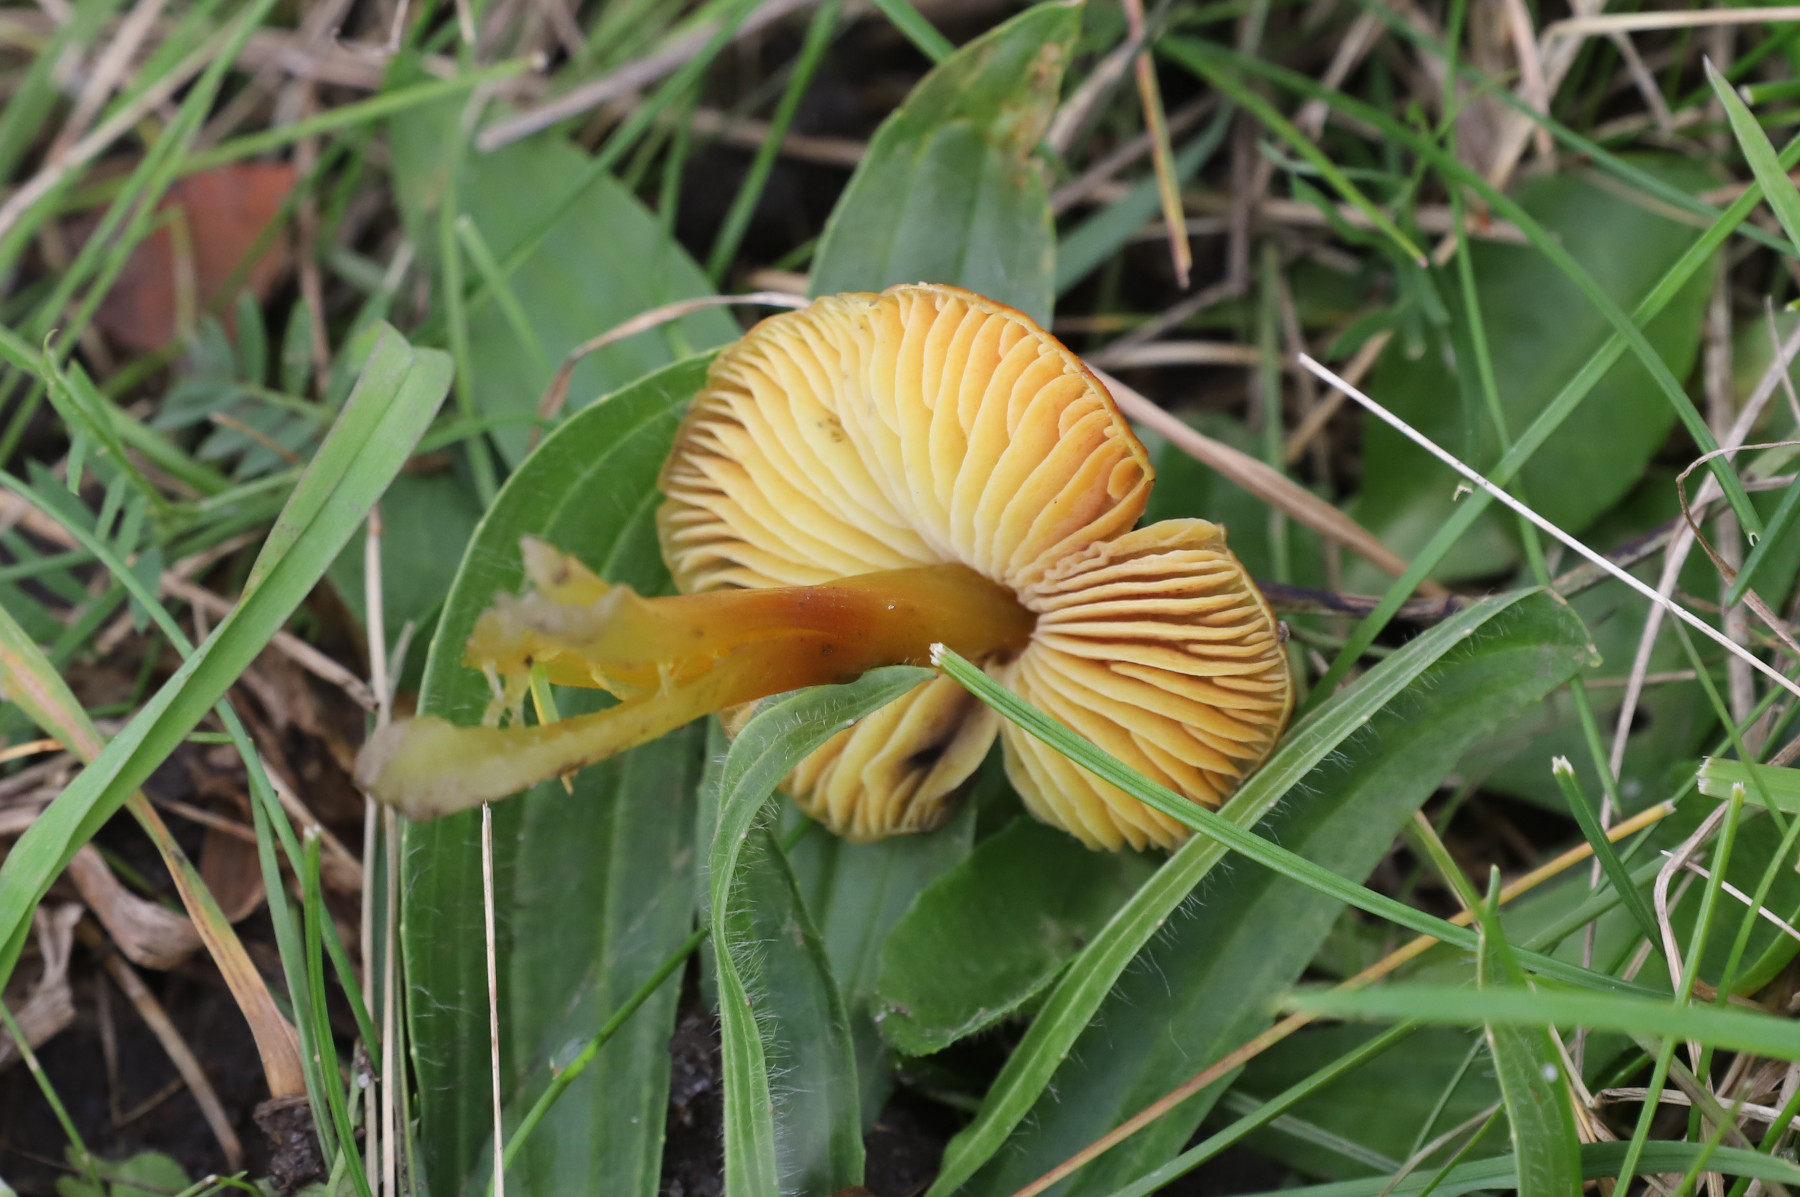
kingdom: Fungi
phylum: Basidiomycota
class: Agaricomycetes
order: Agaricales
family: Hygrophoraceae
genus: Hygrocybe
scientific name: Hygrocybe
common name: vokshat
